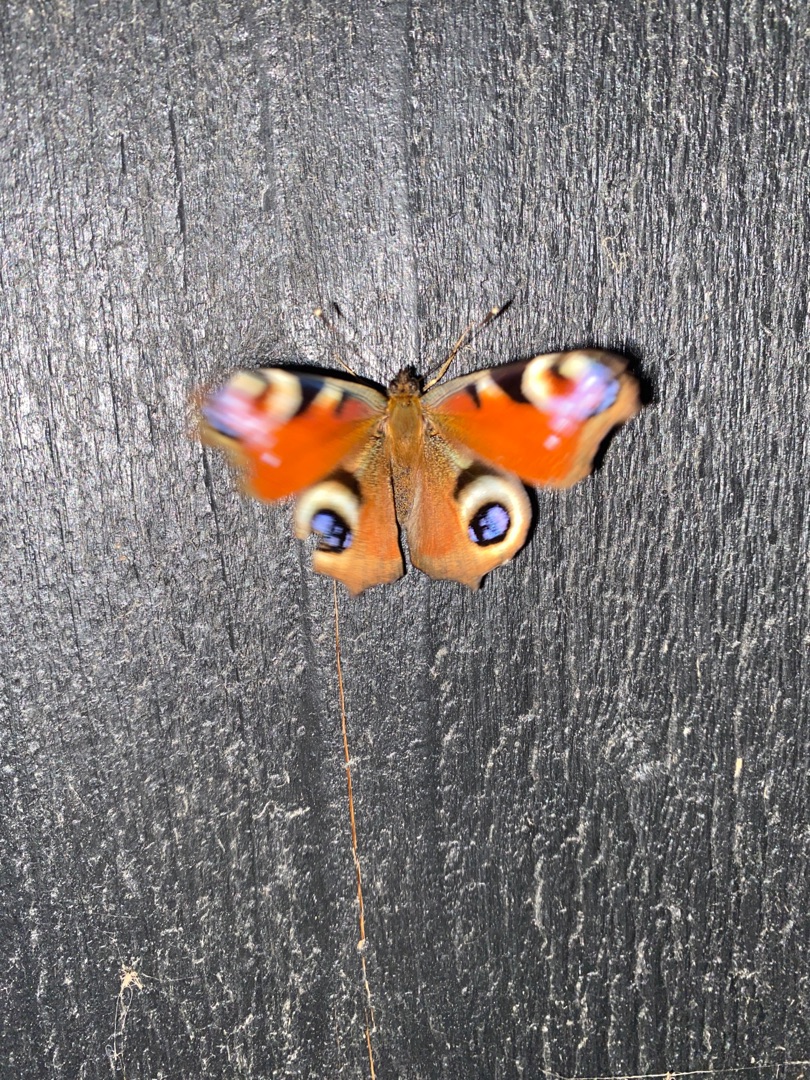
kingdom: Animalia
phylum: Arthropoda
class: Insecta
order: Lepidoptera
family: Nymphalidae
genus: Aglais
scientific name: Aglais io
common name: Dagpåfugleøje
